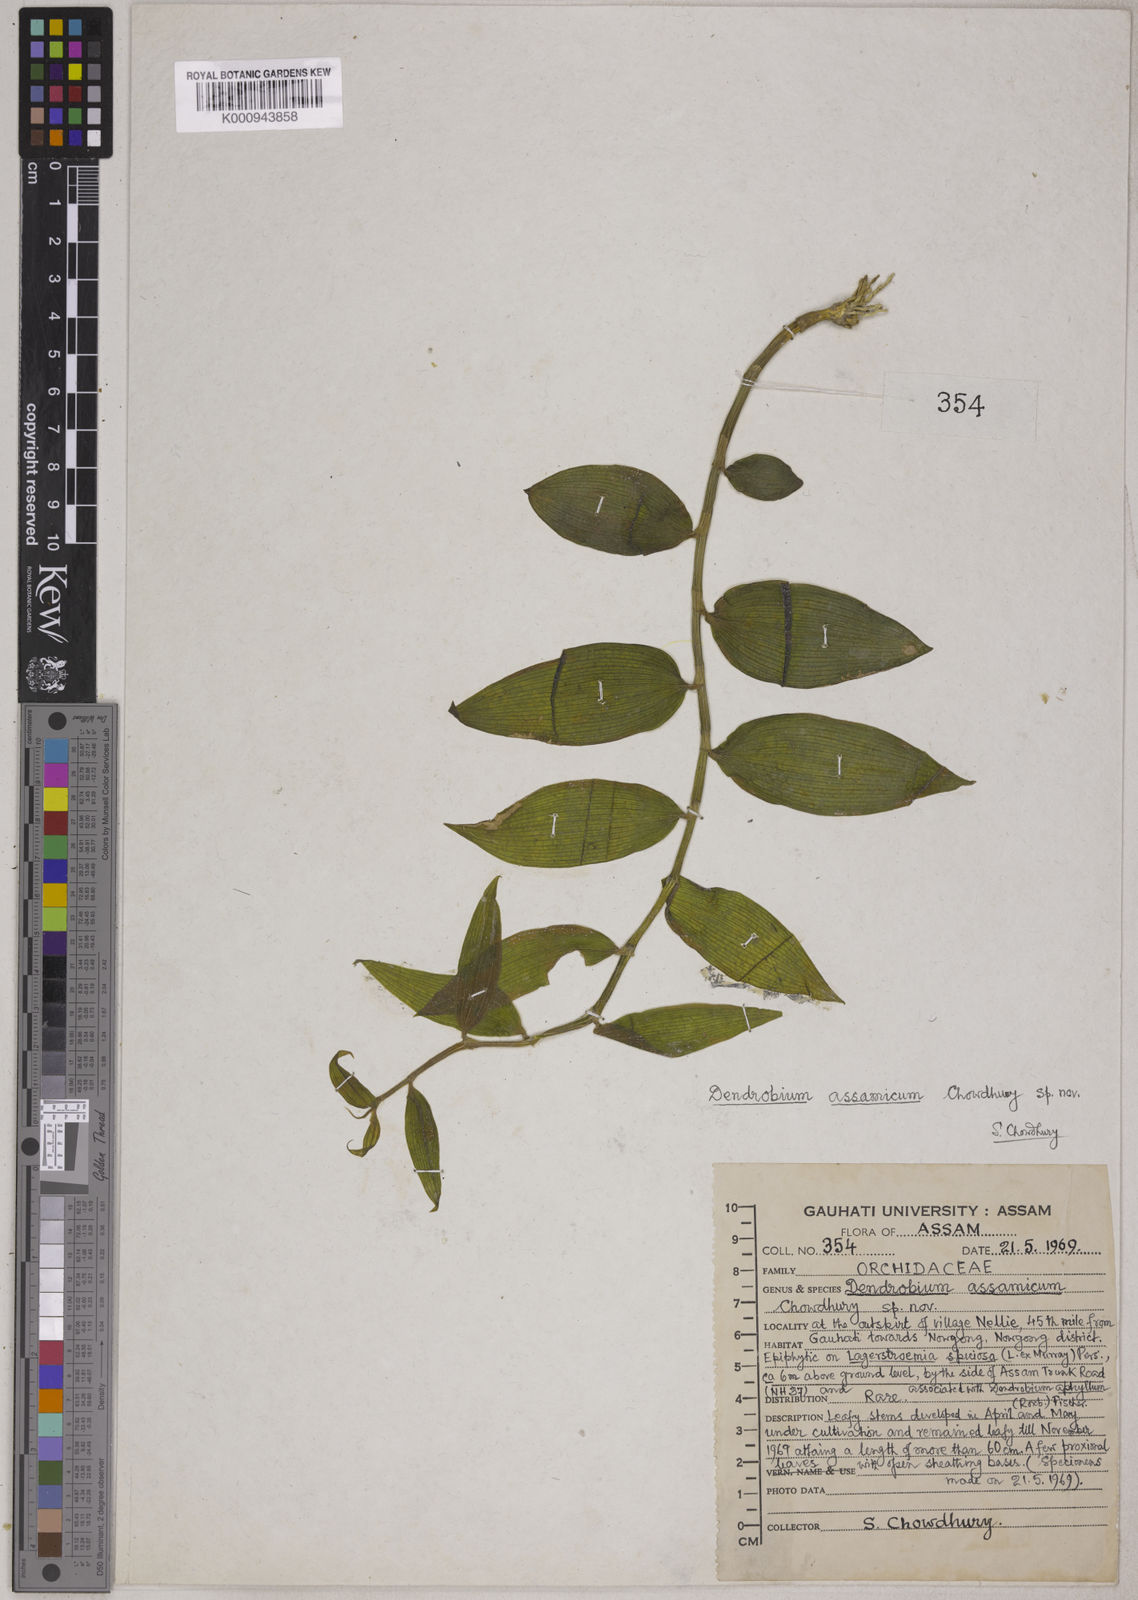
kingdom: Plantae
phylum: Tracheophyta
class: Liliopsida
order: Asparagales
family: Orchidaceae
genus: Dendrobium
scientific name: Dendrobium assamicum
